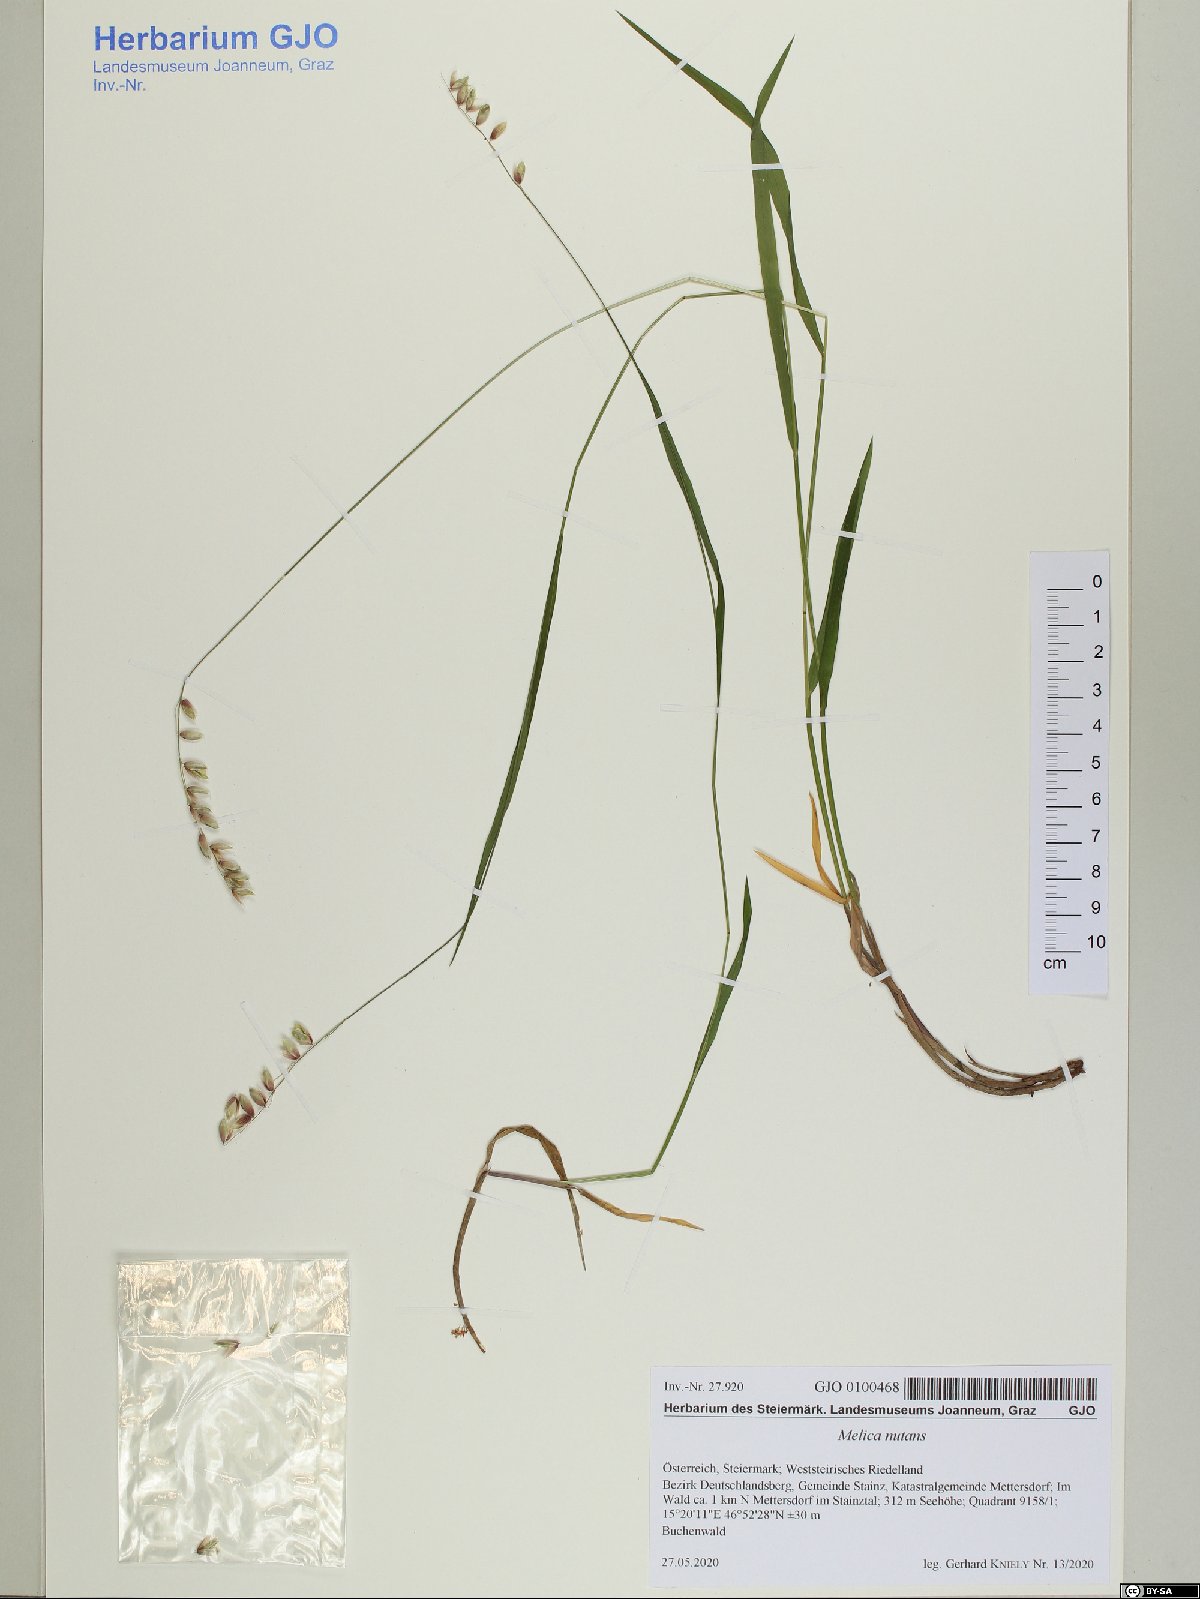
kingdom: Plantae
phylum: Tracheophyta
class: Liliopsida
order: Poales
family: Poaceae
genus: Melica
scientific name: Melica nutans
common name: Mountain melick
